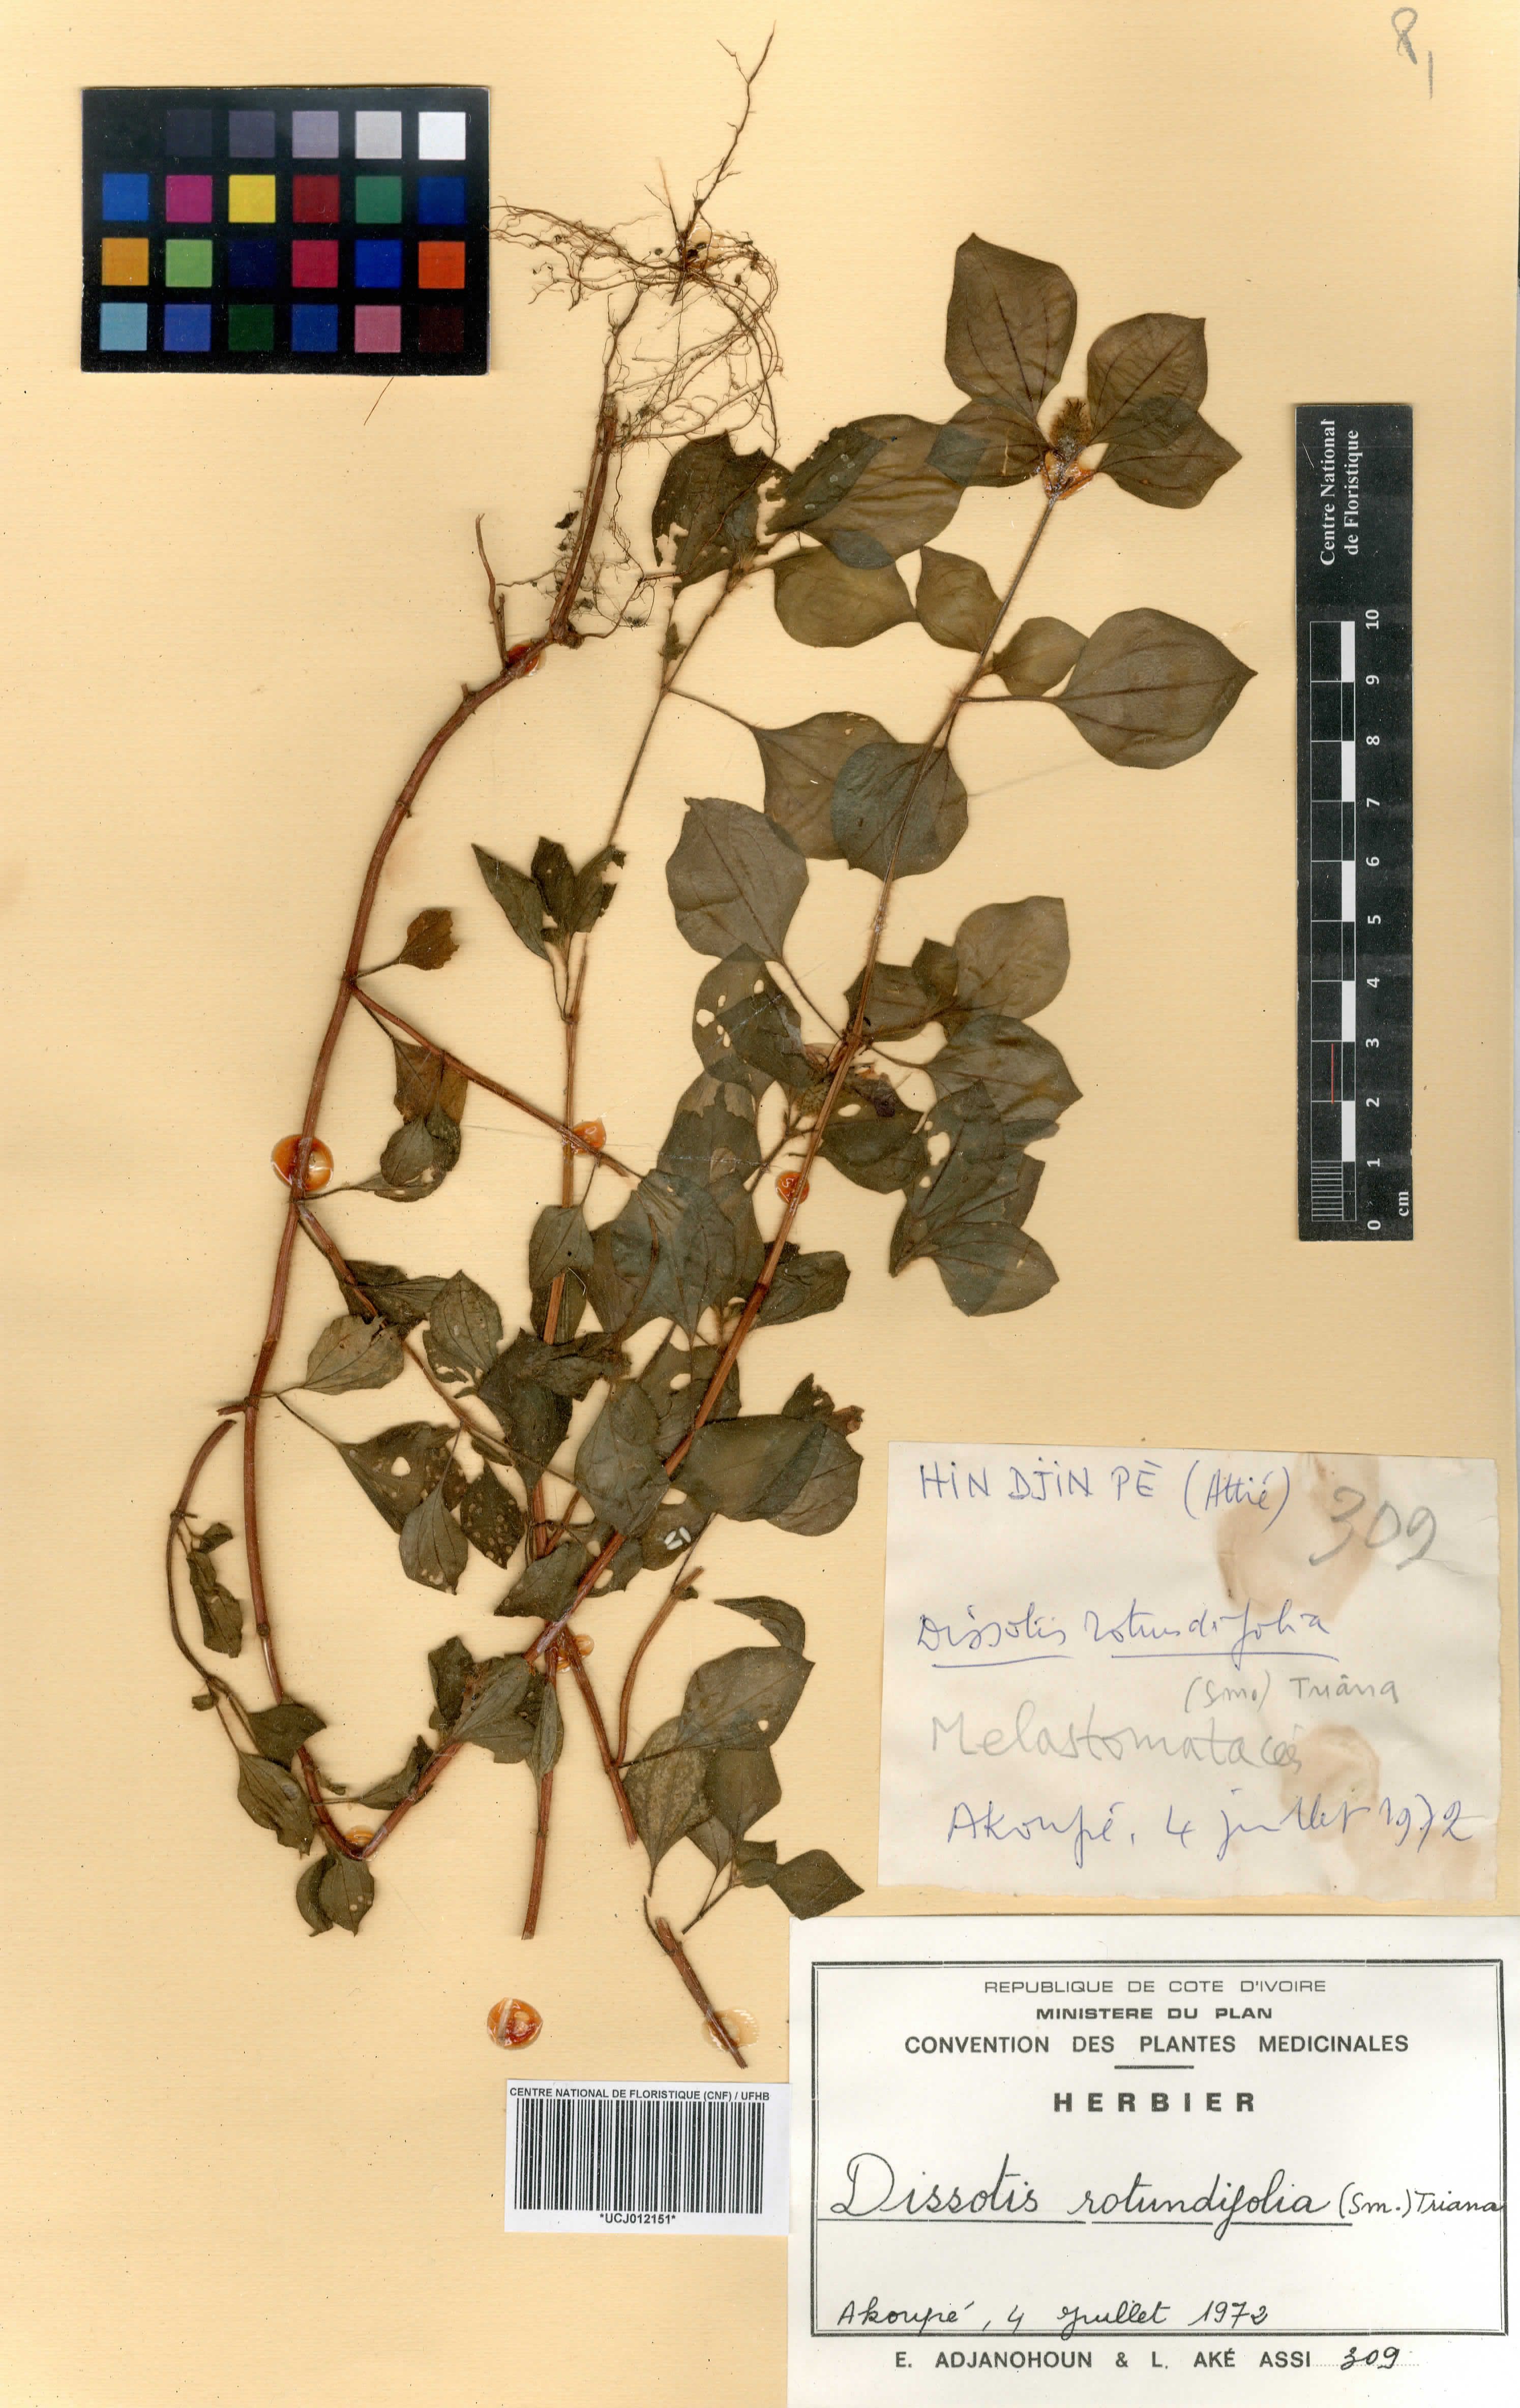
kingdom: Plantae
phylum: Tracheophyta
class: Magnoliopsida
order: Myrtales
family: Melastomataceae
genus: Heterotis
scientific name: Heterotis rotundifolia
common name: Pinklady
